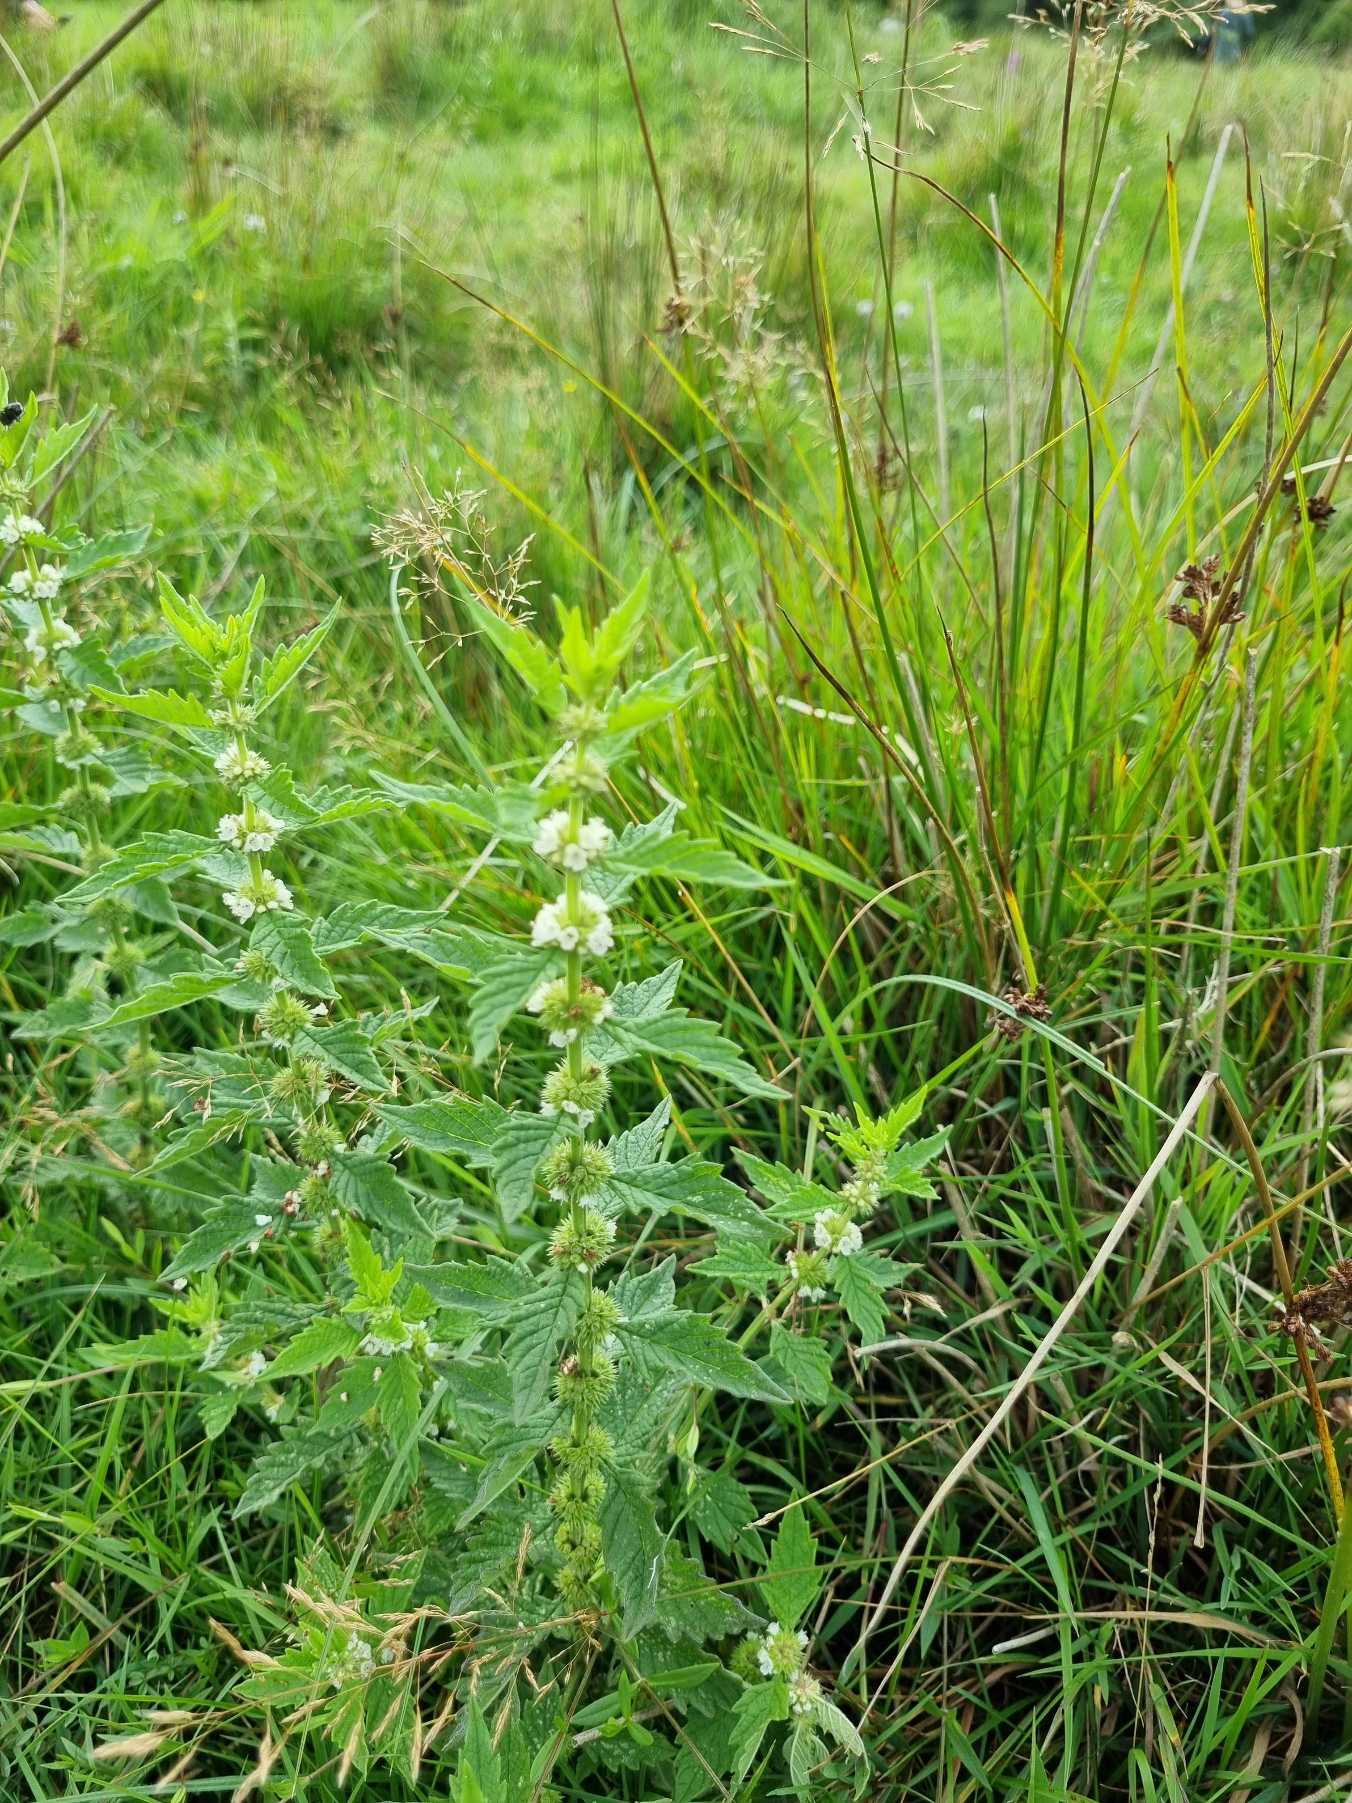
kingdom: Plantae
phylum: Tracheophyta
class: Magnoliopsida
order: Lamiales
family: Lamiaceae
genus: Lycopus
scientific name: Lycopus europaeus
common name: Sværtevæld
